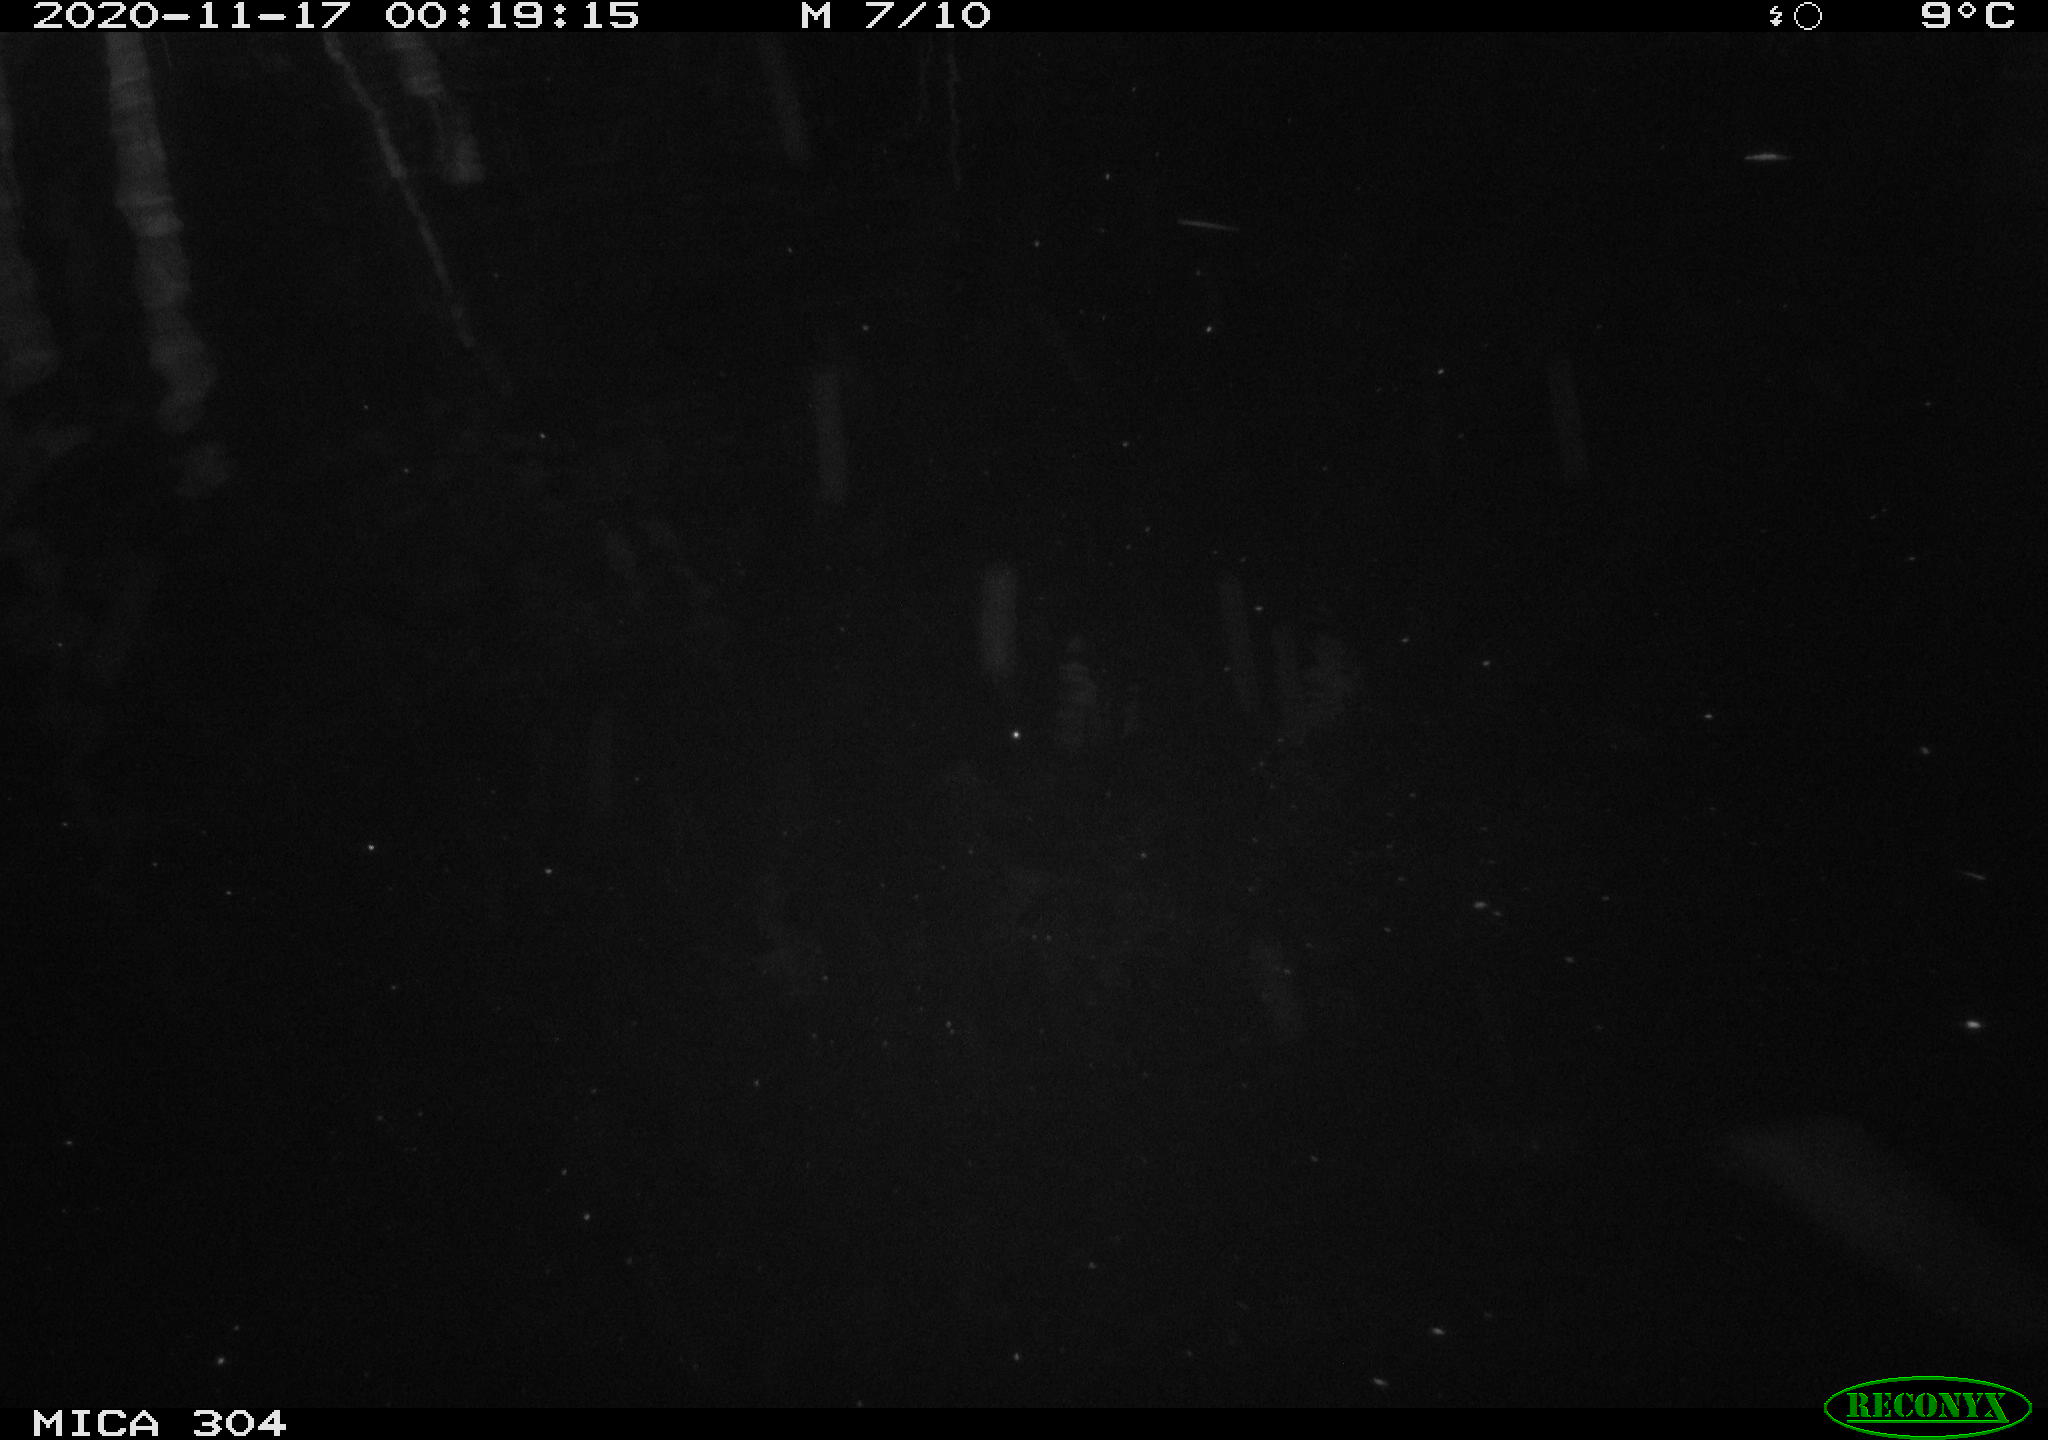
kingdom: Animalia
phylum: Chordata
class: Aves
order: Gruiformes
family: Rallidae
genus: Fulica
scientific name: Fulica atra
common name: Eurasian coot
